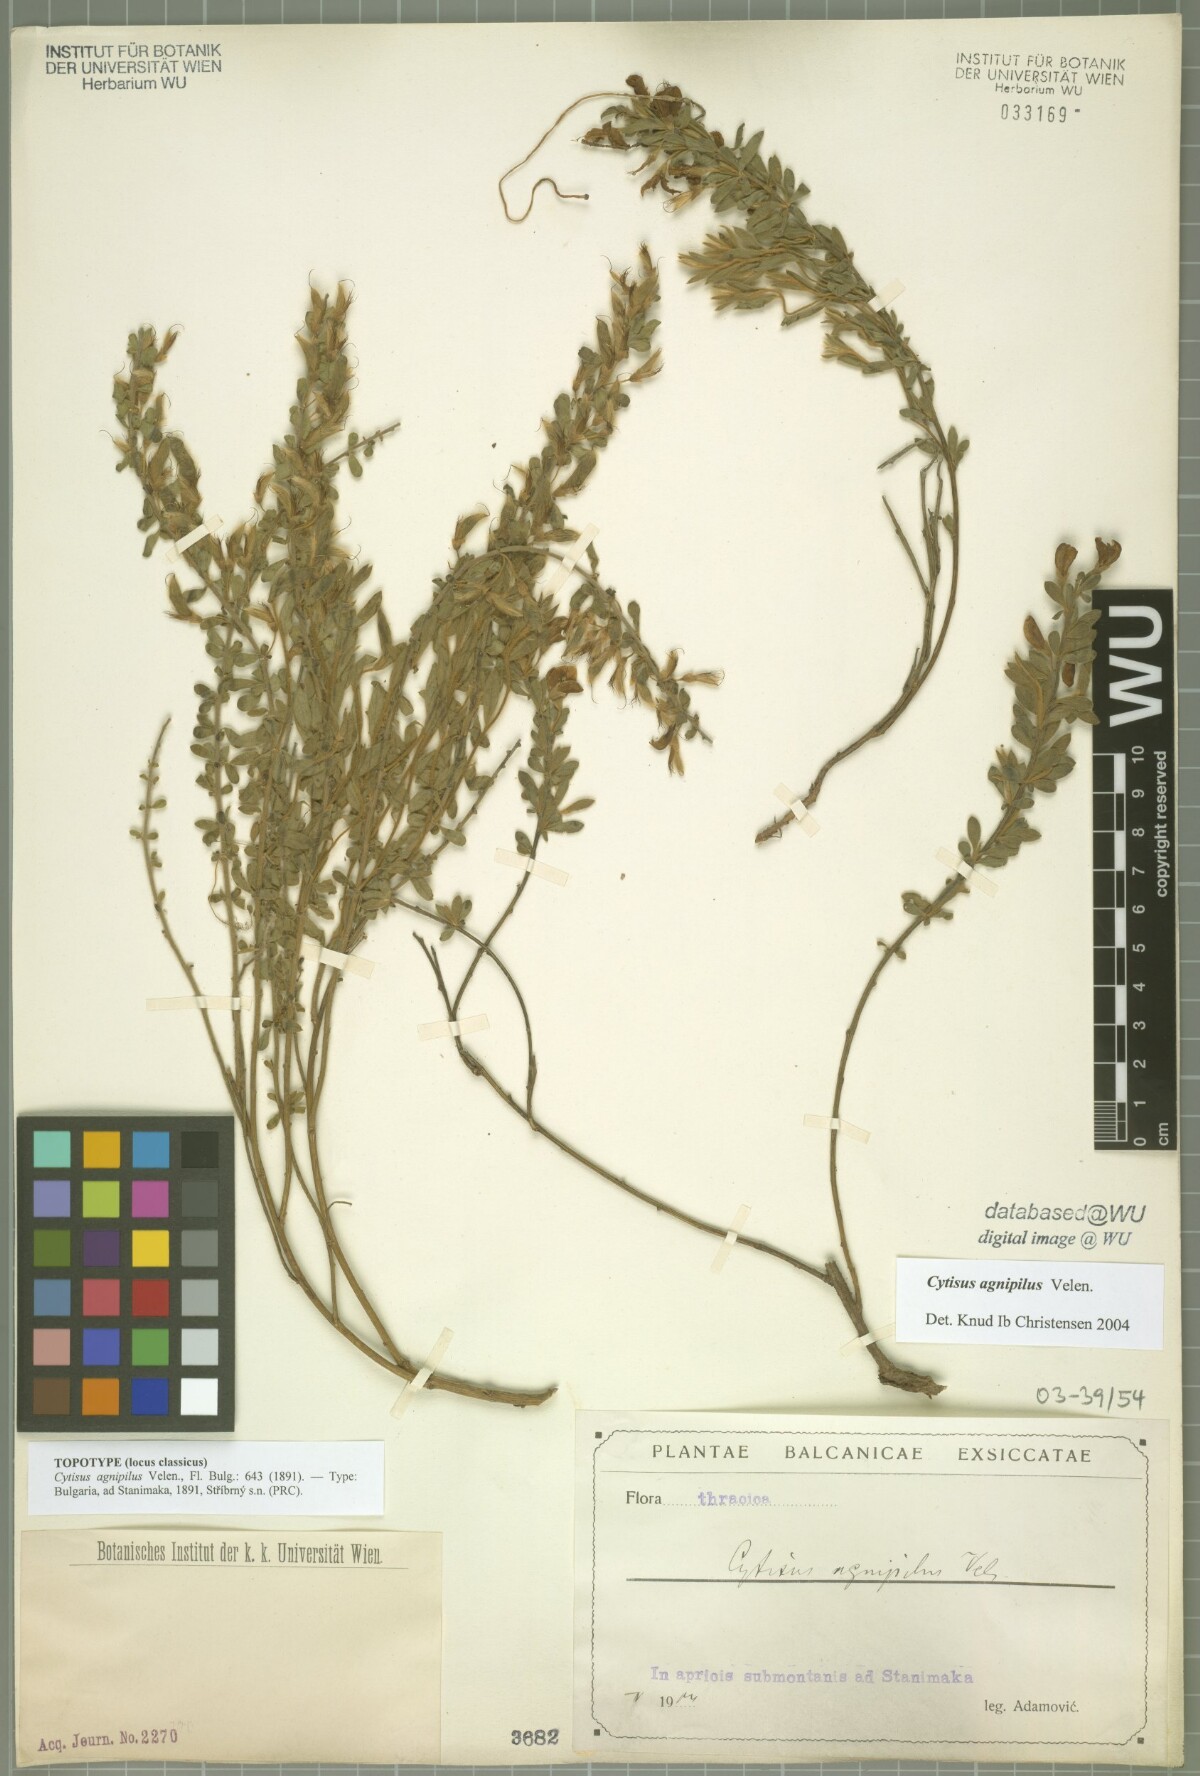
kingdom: Plantae
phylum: Tracheophyta
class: Magnoliopsida
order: Fabales
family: Fabaceae
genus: Cytisus
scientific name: Cytisus agnipilus
